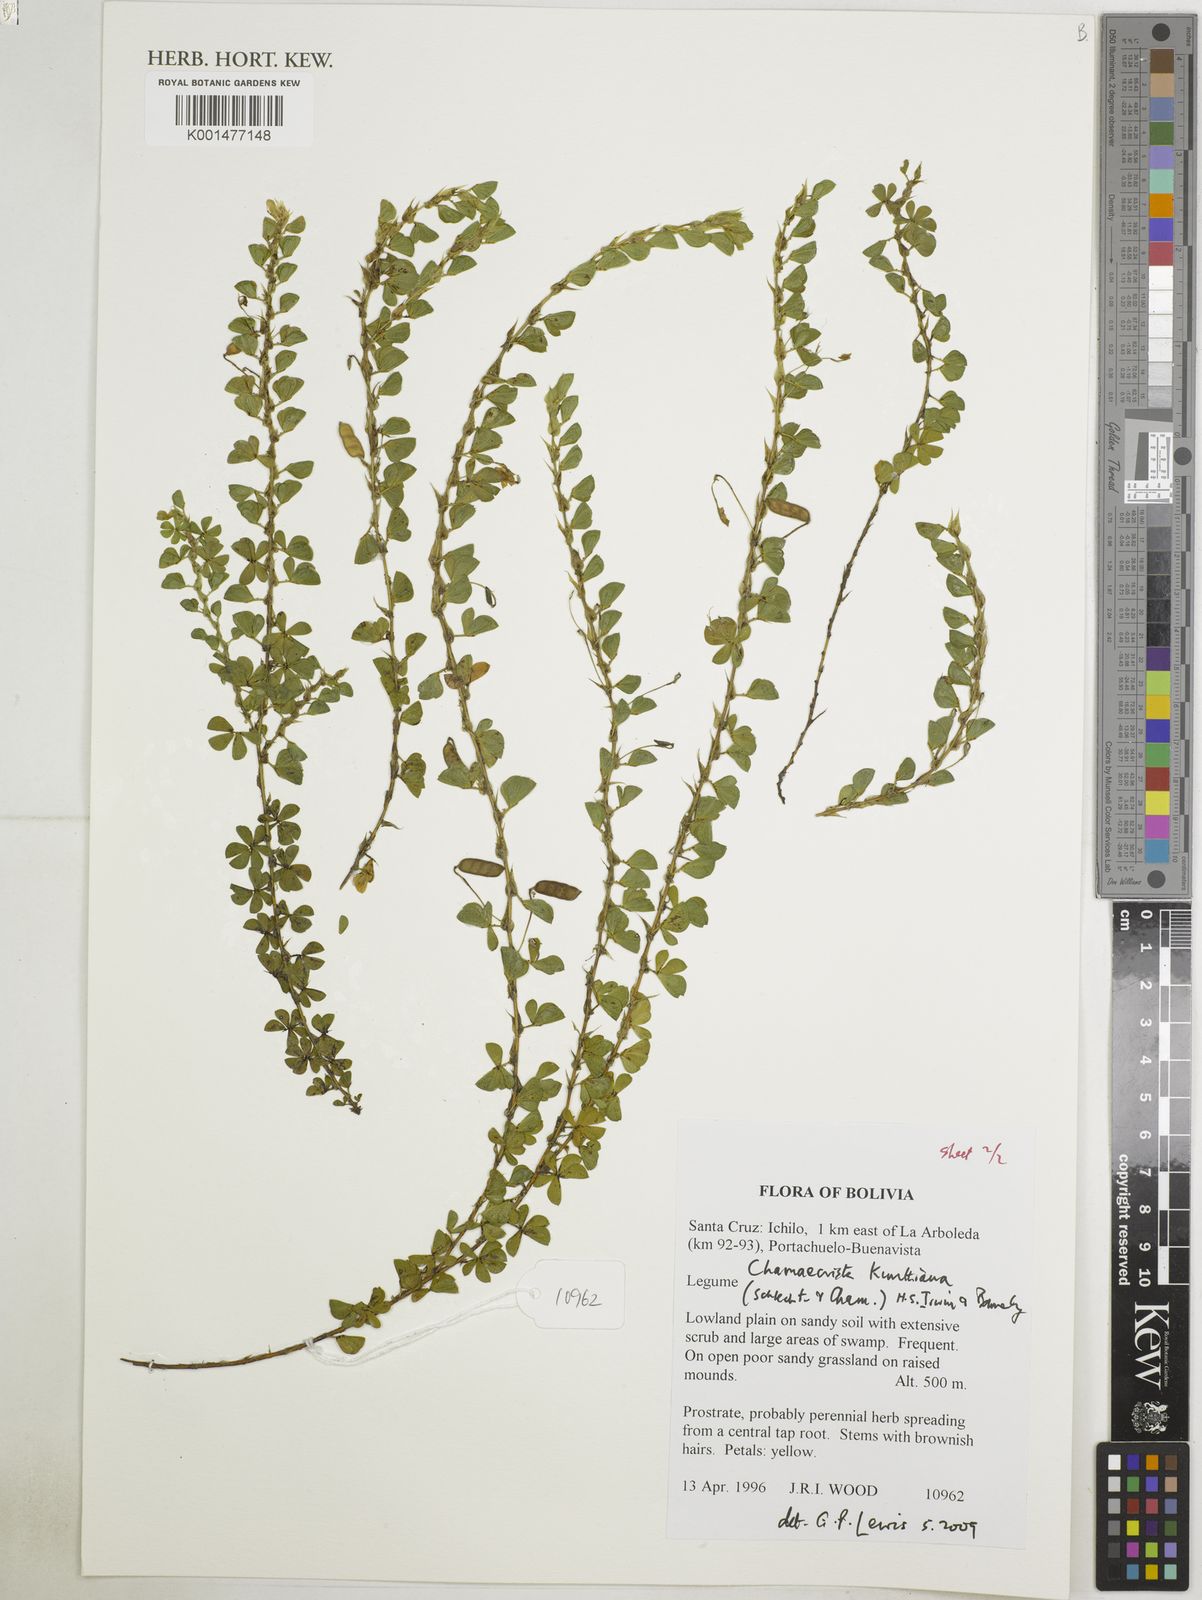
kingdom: Plantae
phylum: Tracheophyta
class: Magnoliopsida
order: Fabales
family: Fabaceae
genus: Chamaecrista
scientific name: Chamaecrista kunthiana
